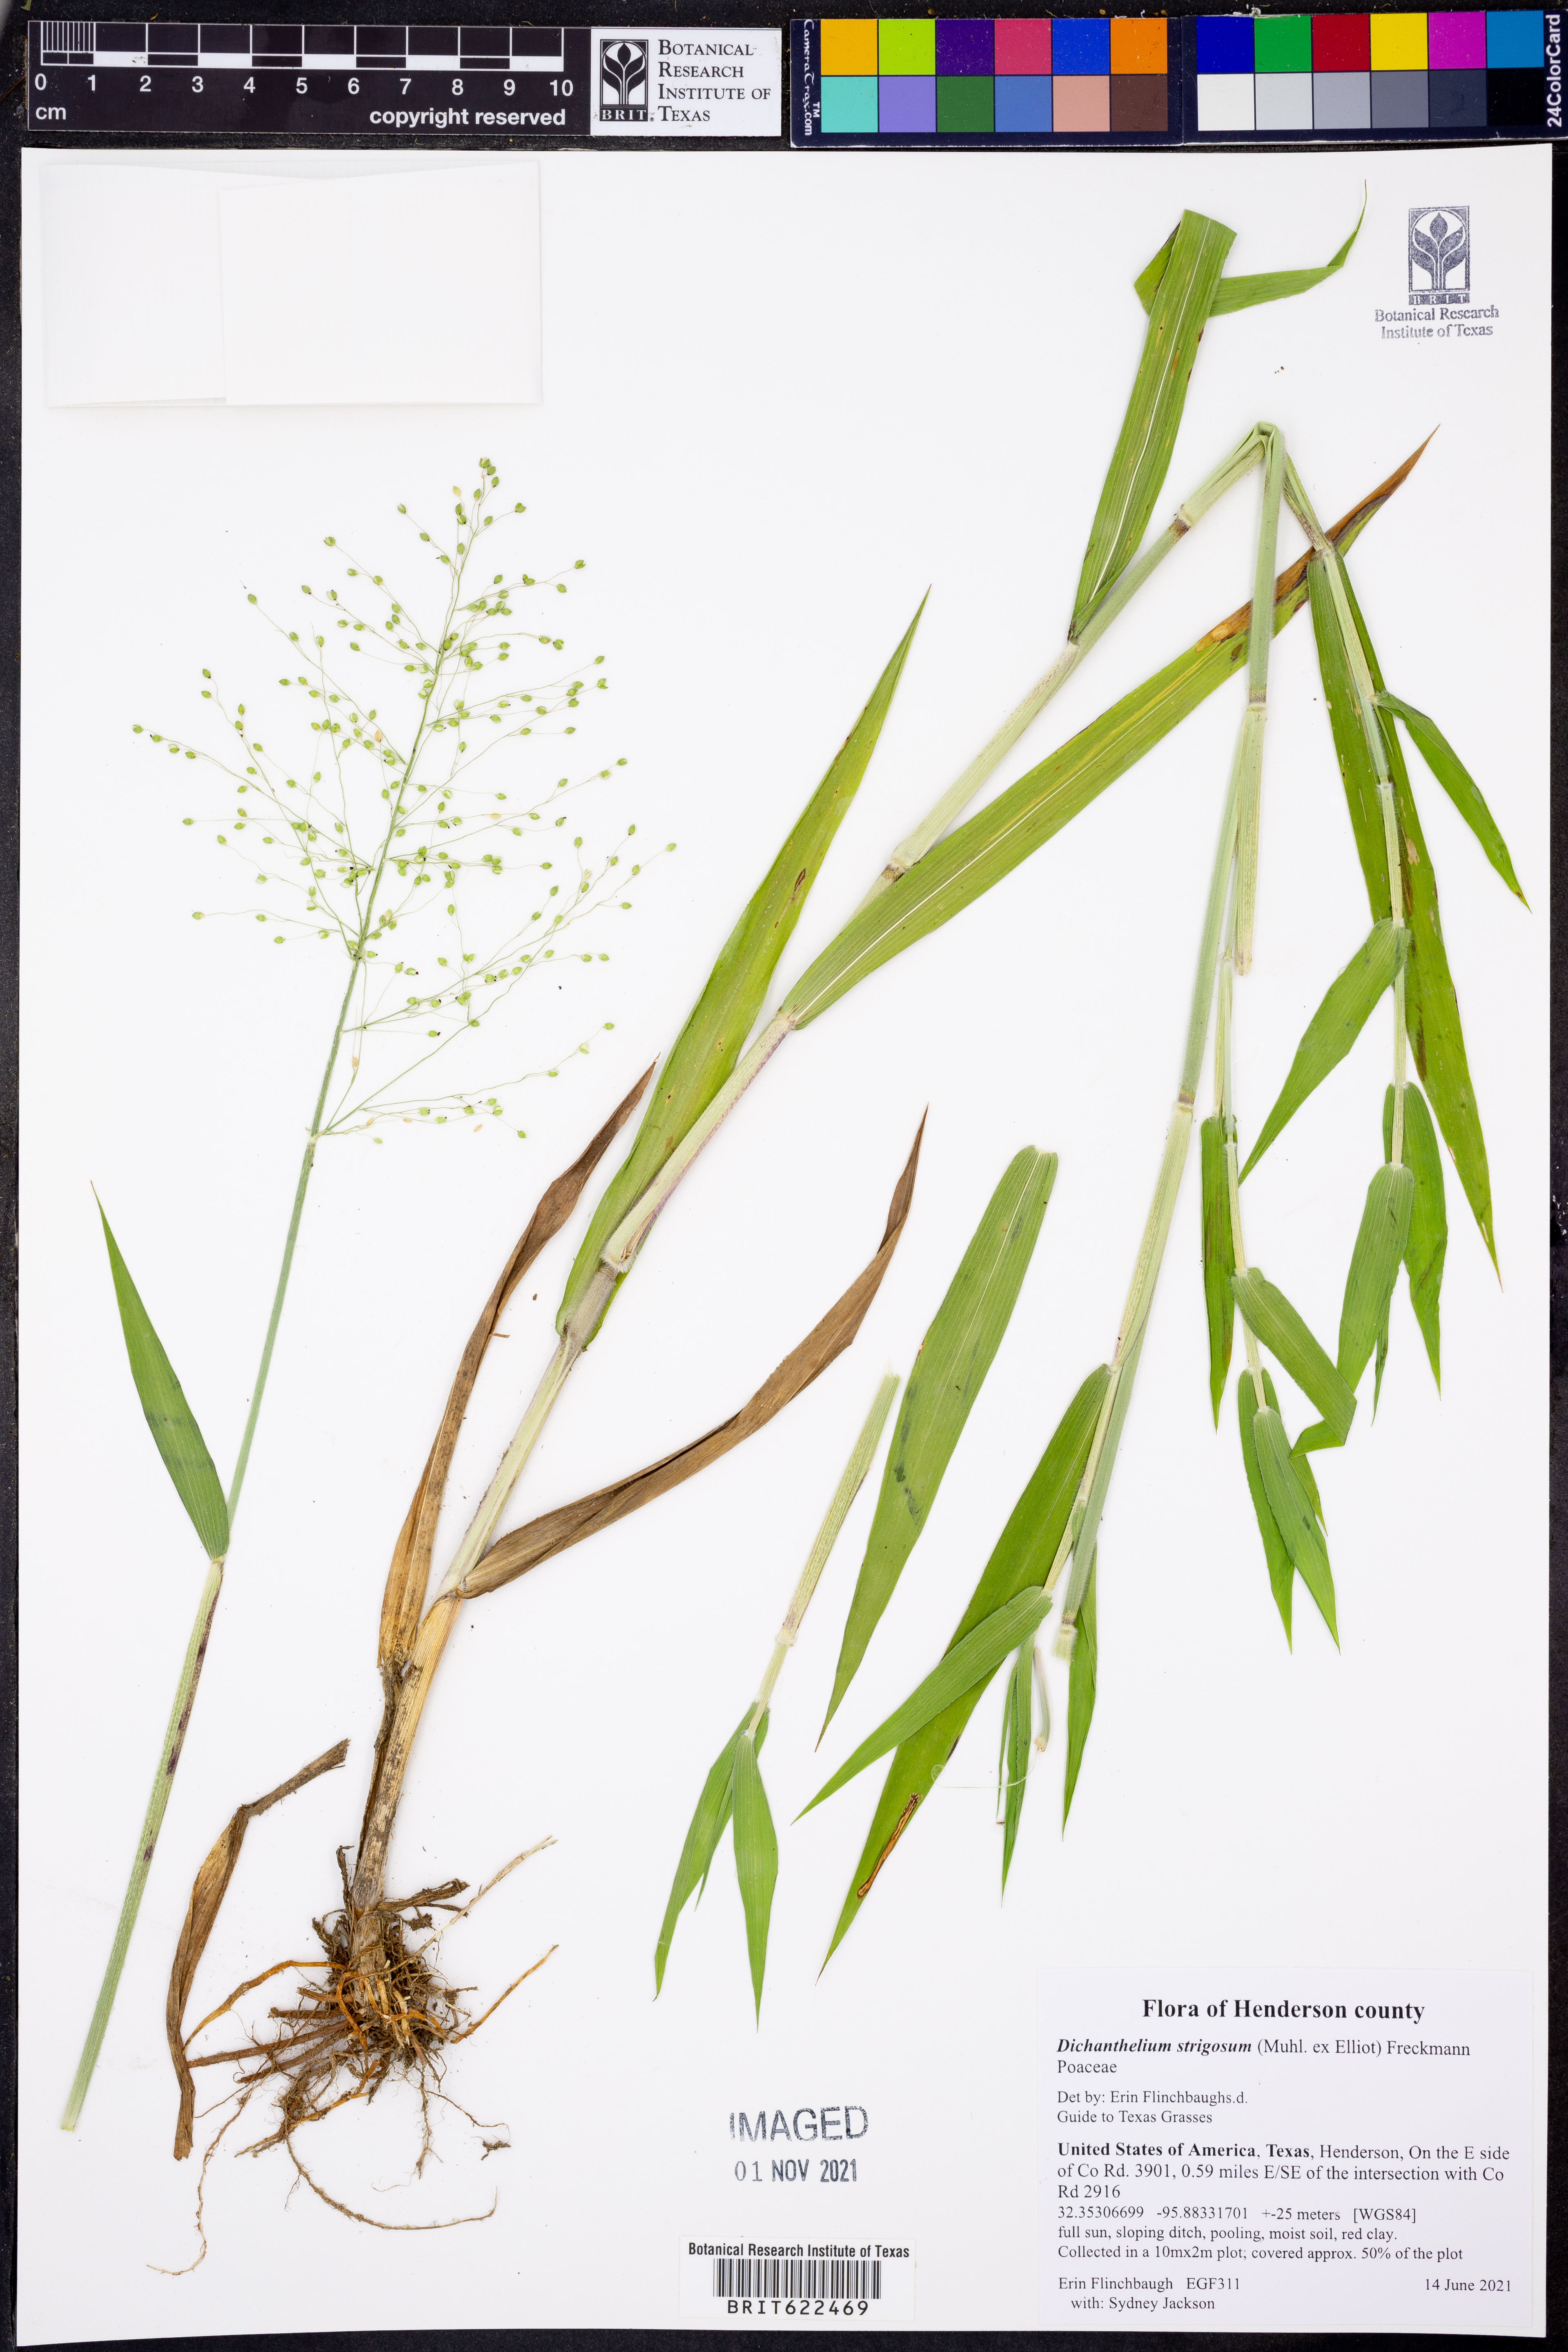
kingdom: Plantae
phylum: Tracheophyta
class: Liliopsida
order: Poales
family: Poaceae
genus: Dichanthelium
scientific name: Dichanthelium strigosum
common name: Cushion-tuft panic grass
